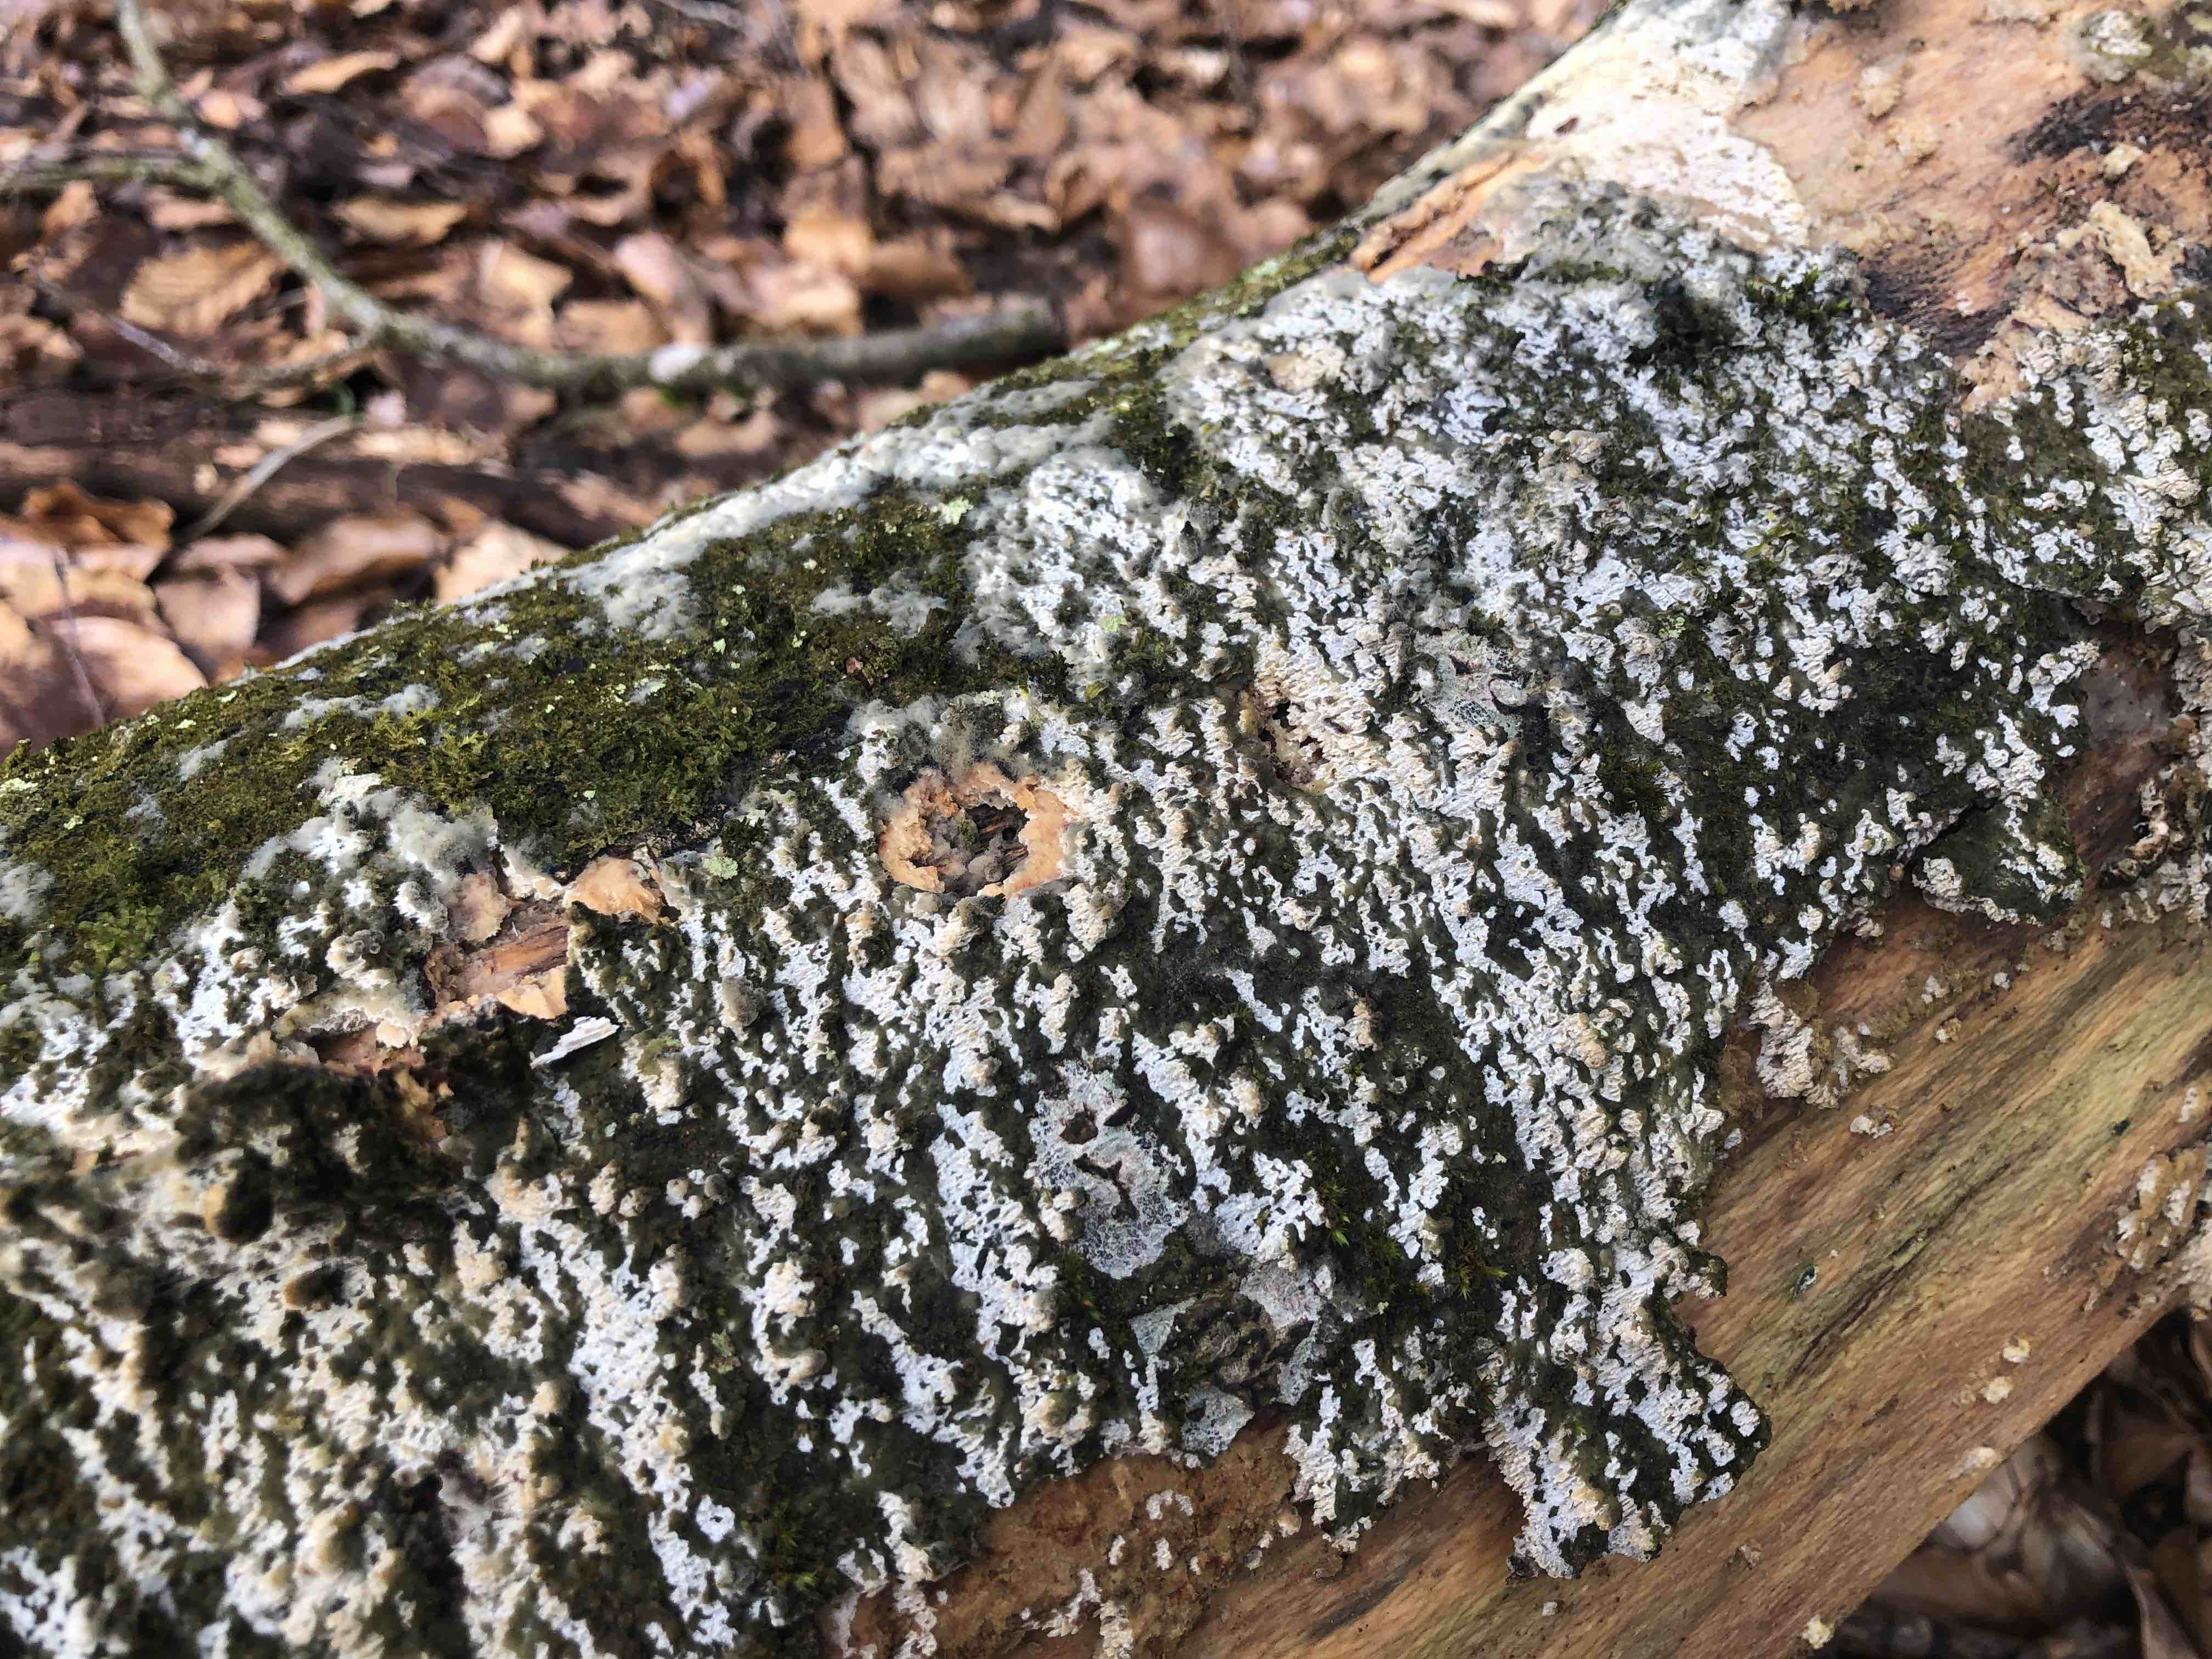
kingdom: Fungi
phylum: Basidiomycota
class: Agaricomycetes
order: Hymenochaetales
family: Schizoporaceae
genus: Schizopora
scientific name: Schizopora paradoxa
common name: hvid tandsvamp
